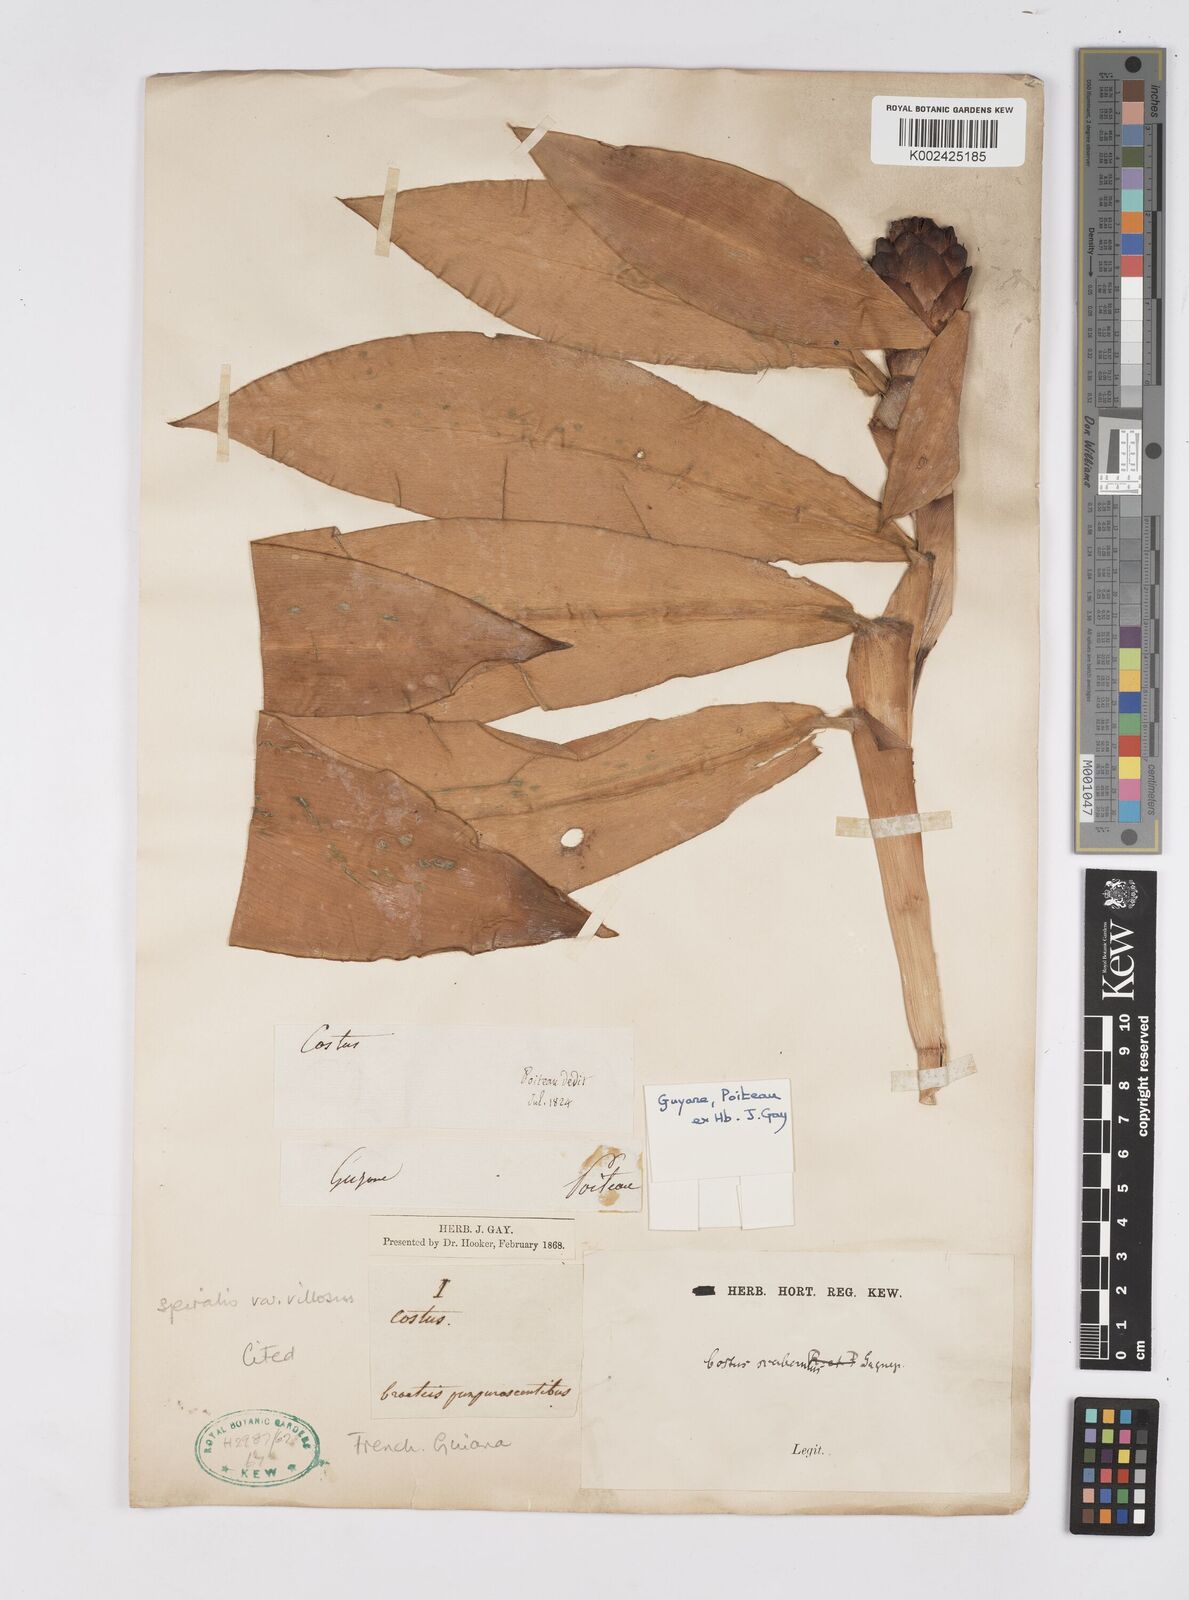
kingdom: Plantae
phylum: Tracheophyta
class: Liliopsida
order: Zingiberales
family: Costaceae
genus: Costus
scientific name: Costus spiralis
